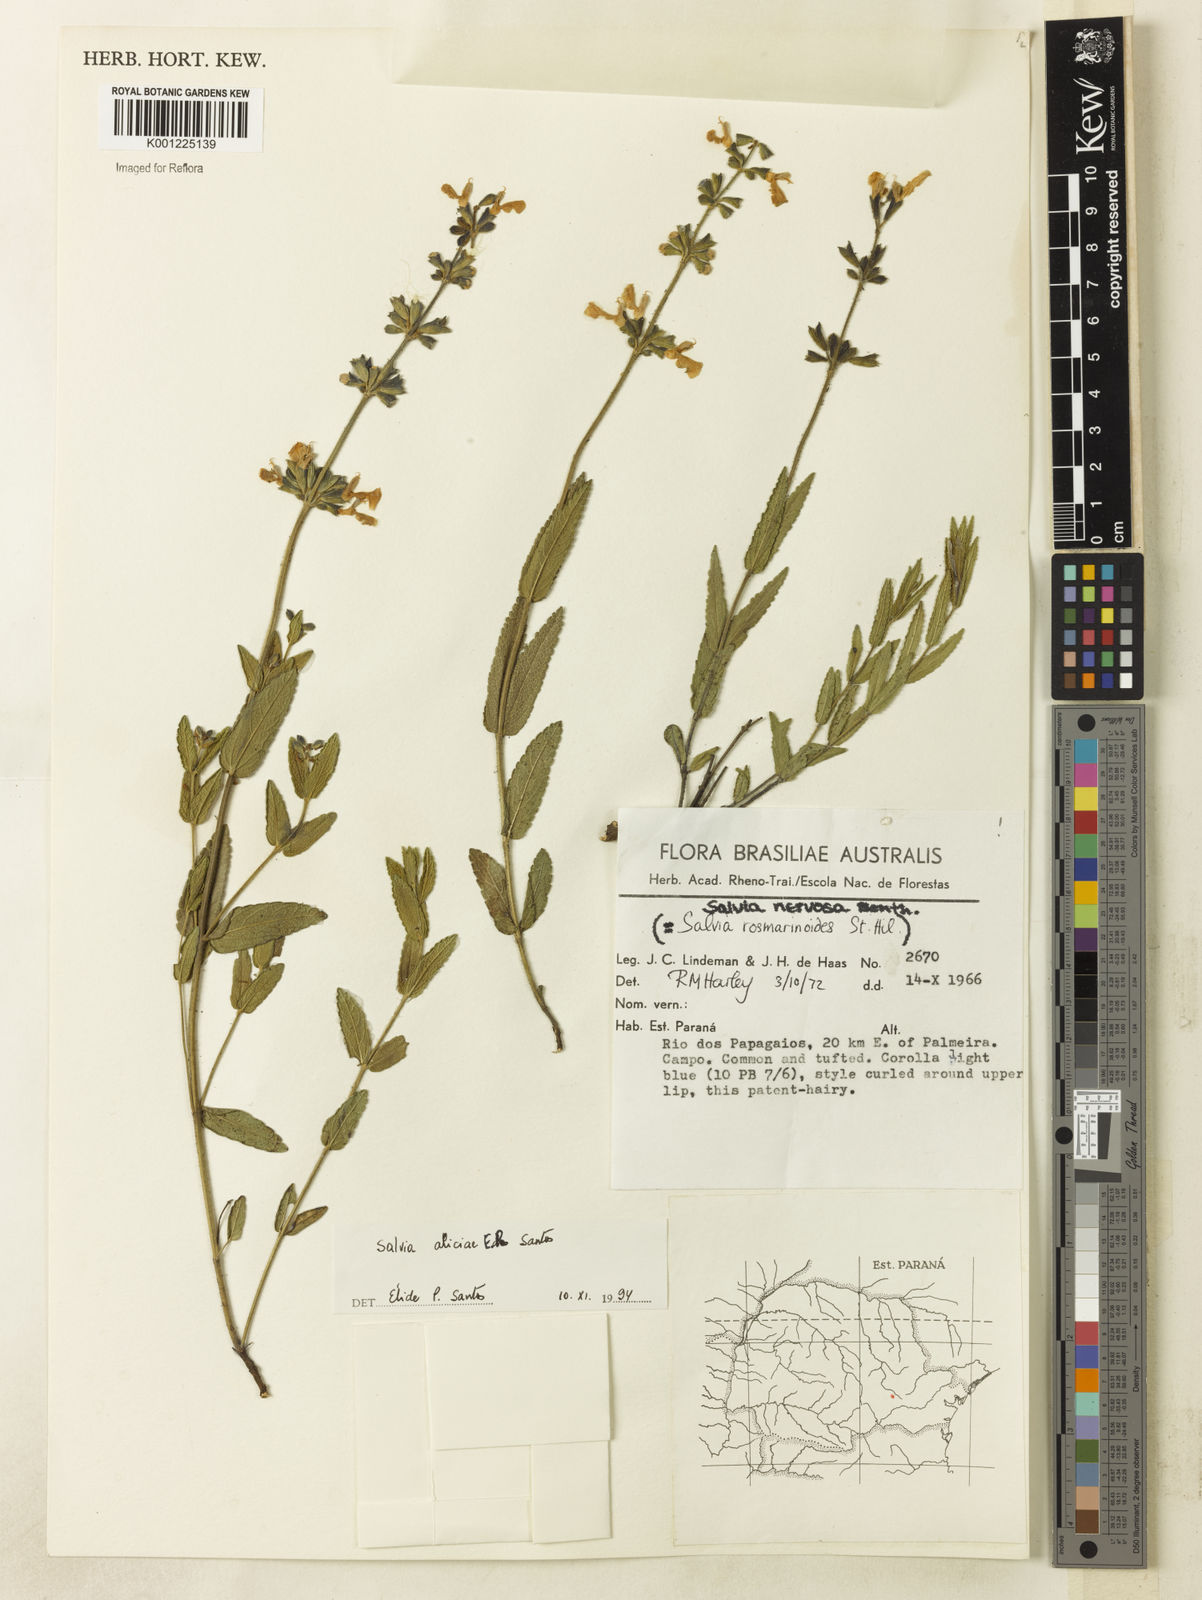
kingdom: Plantae
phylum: Tracheophyta
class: Magnoliopsida
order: Lamiales
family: Lamiaceae
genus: Salvia
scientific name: Salvia aliciae
